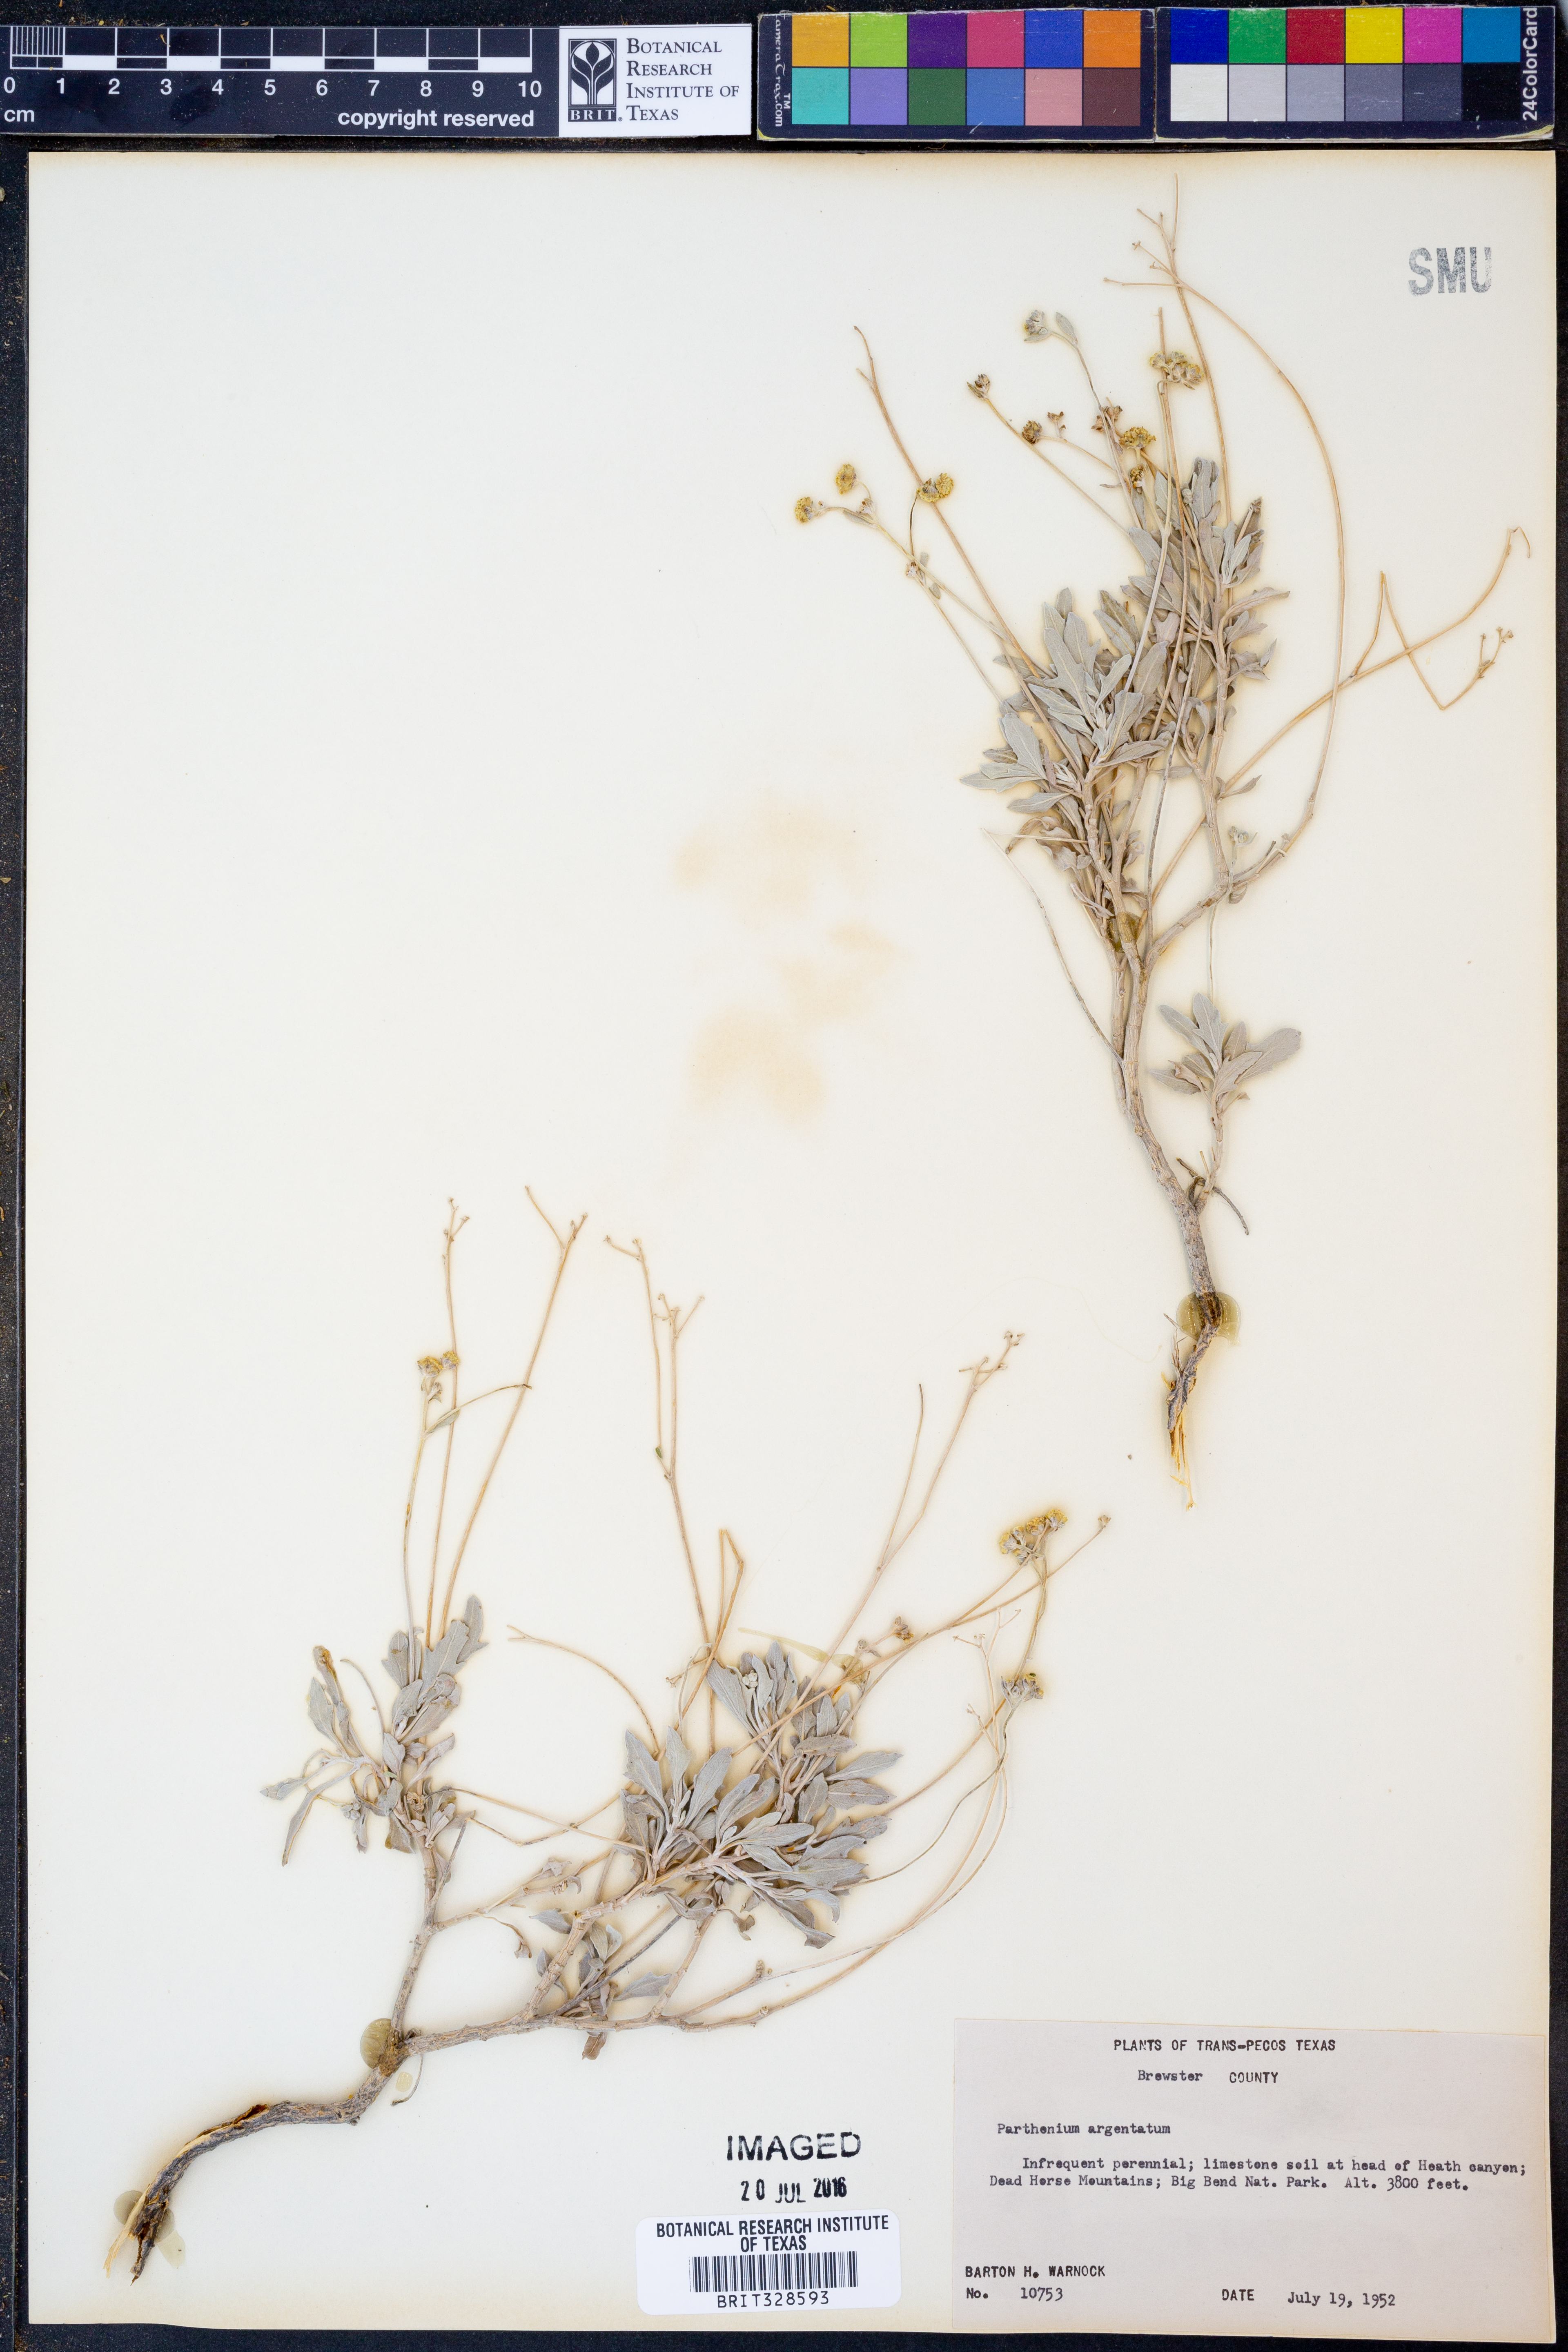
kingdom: Plantae
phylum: Tracheophyta
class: Magnoliopsida
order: Asterales
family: Asteraceae
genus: Parthenium
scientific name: Parthenium argentatum
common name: Guayule
